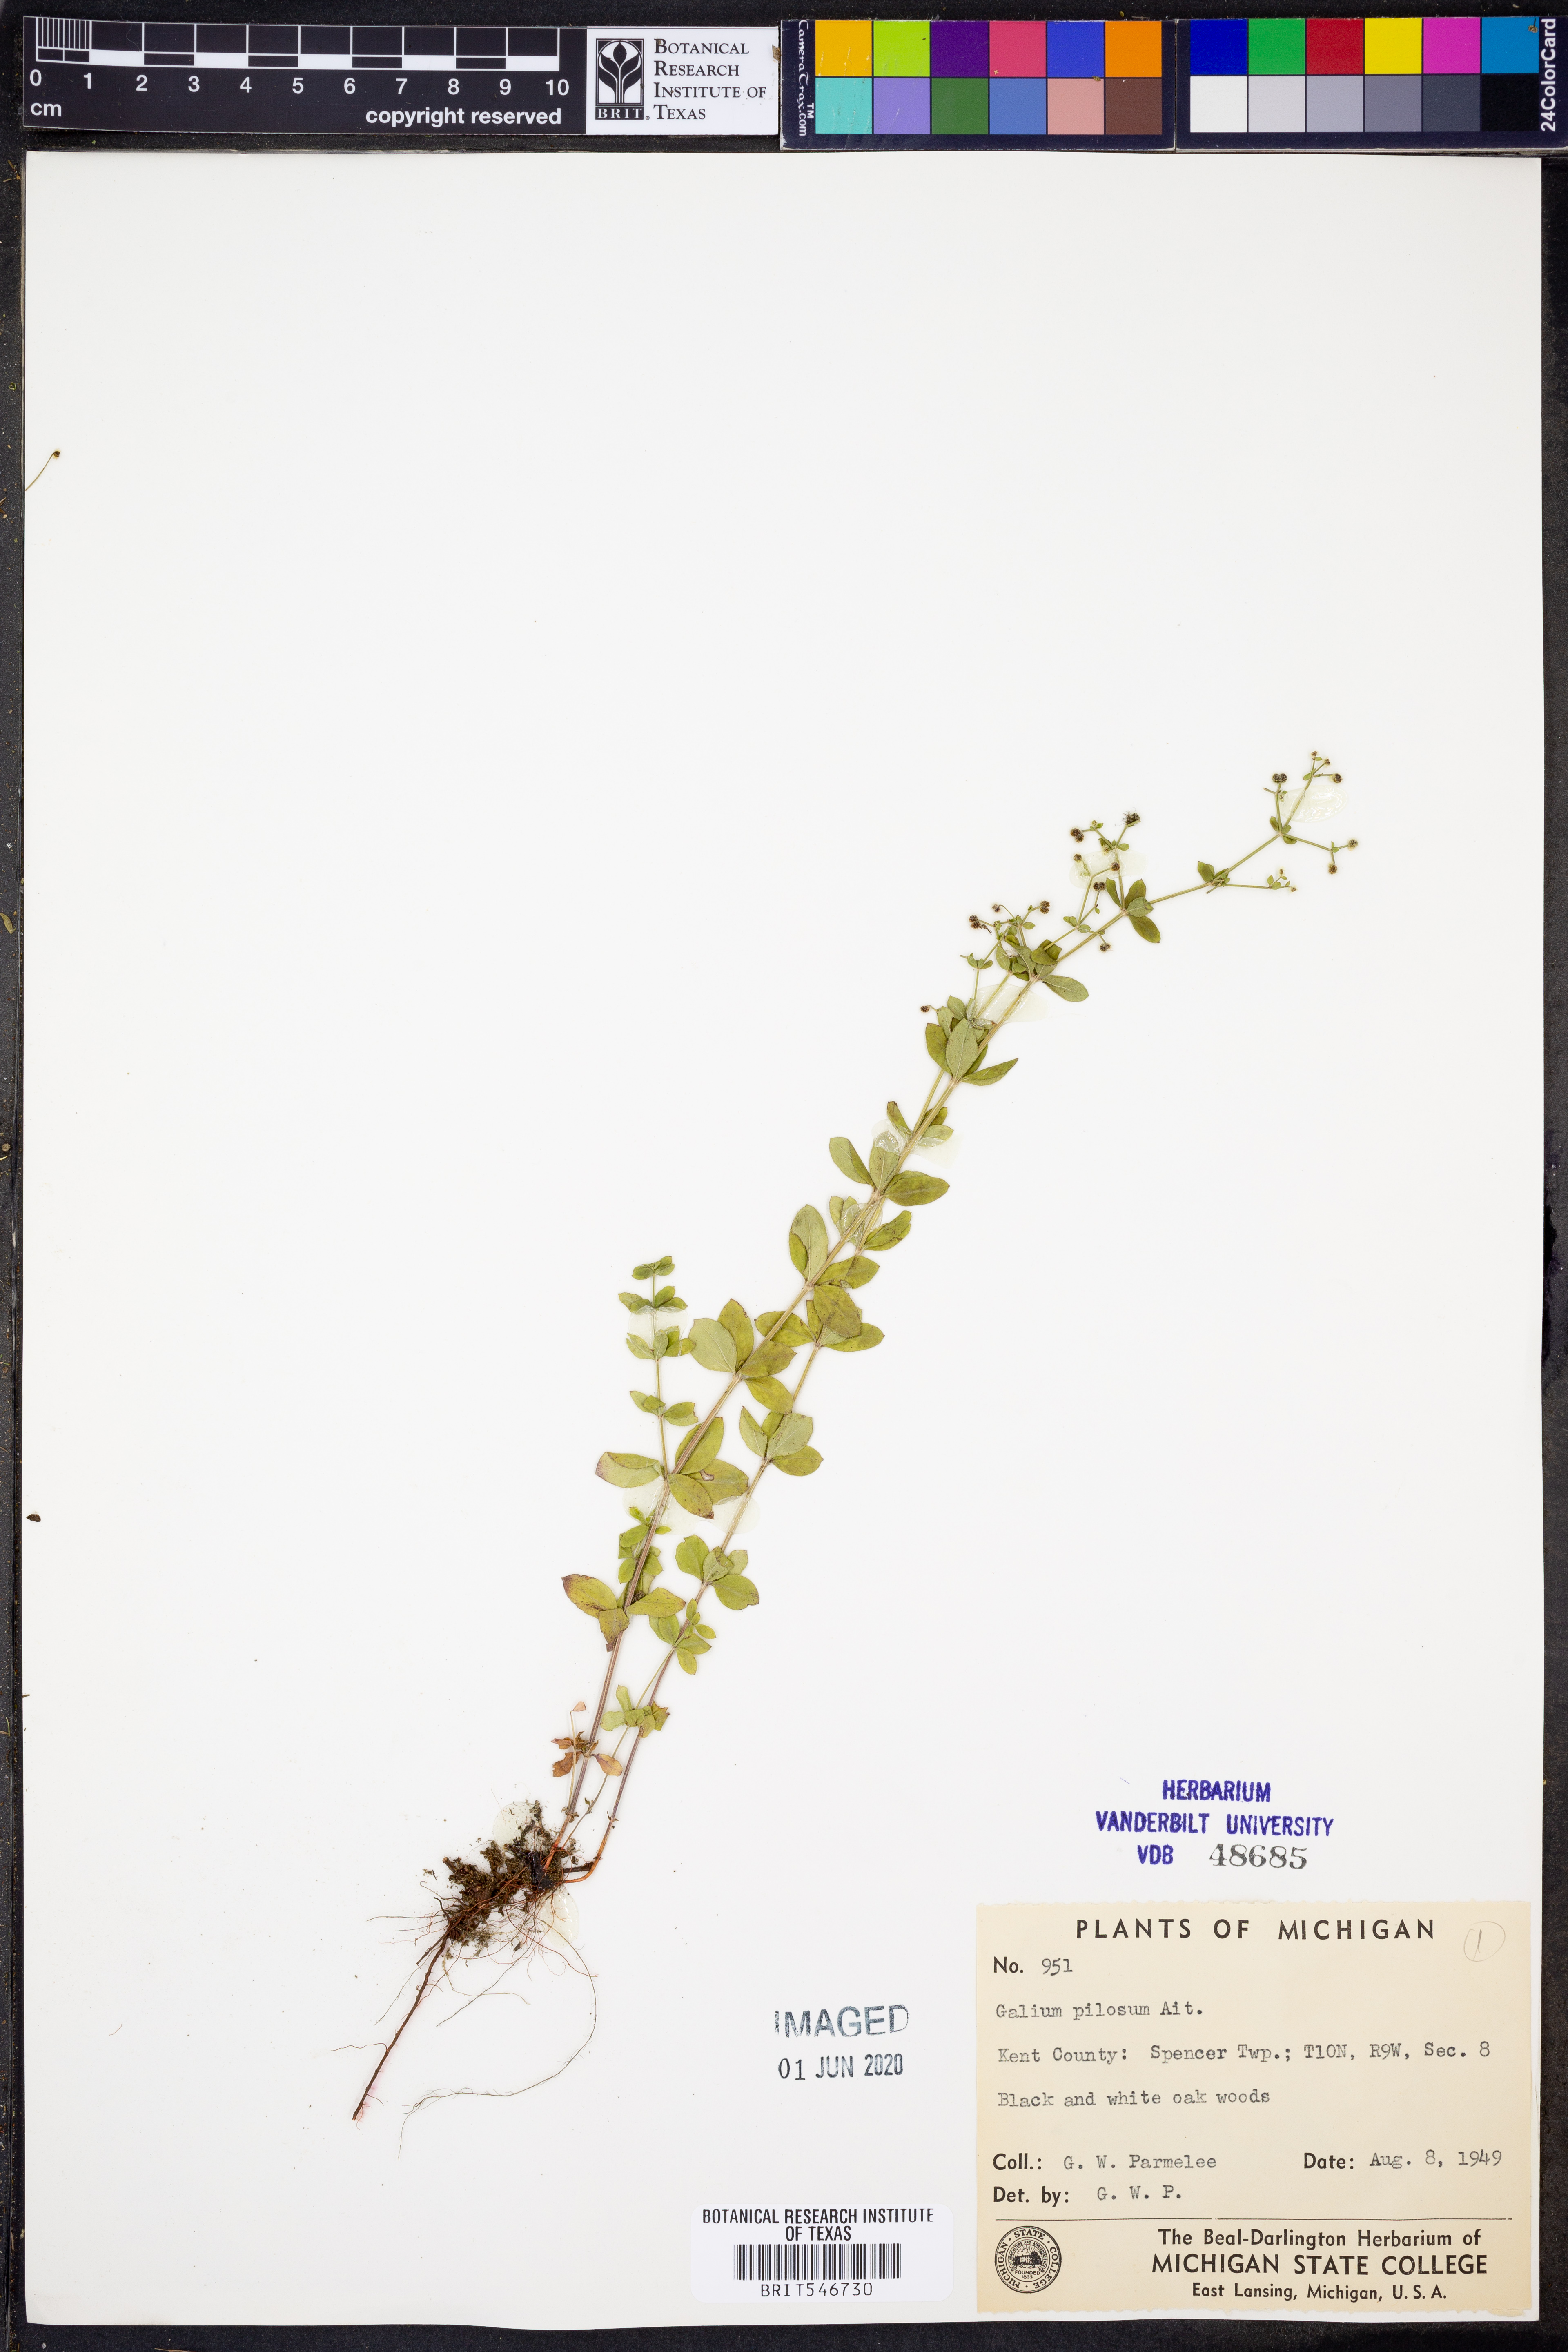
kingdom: Plantae
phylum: Tracheophyta
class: Magnoliopsida
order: Gentianales
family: Rubiaceae
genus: Galium
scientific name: Galium pilosum
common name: Hairy bedstraw
